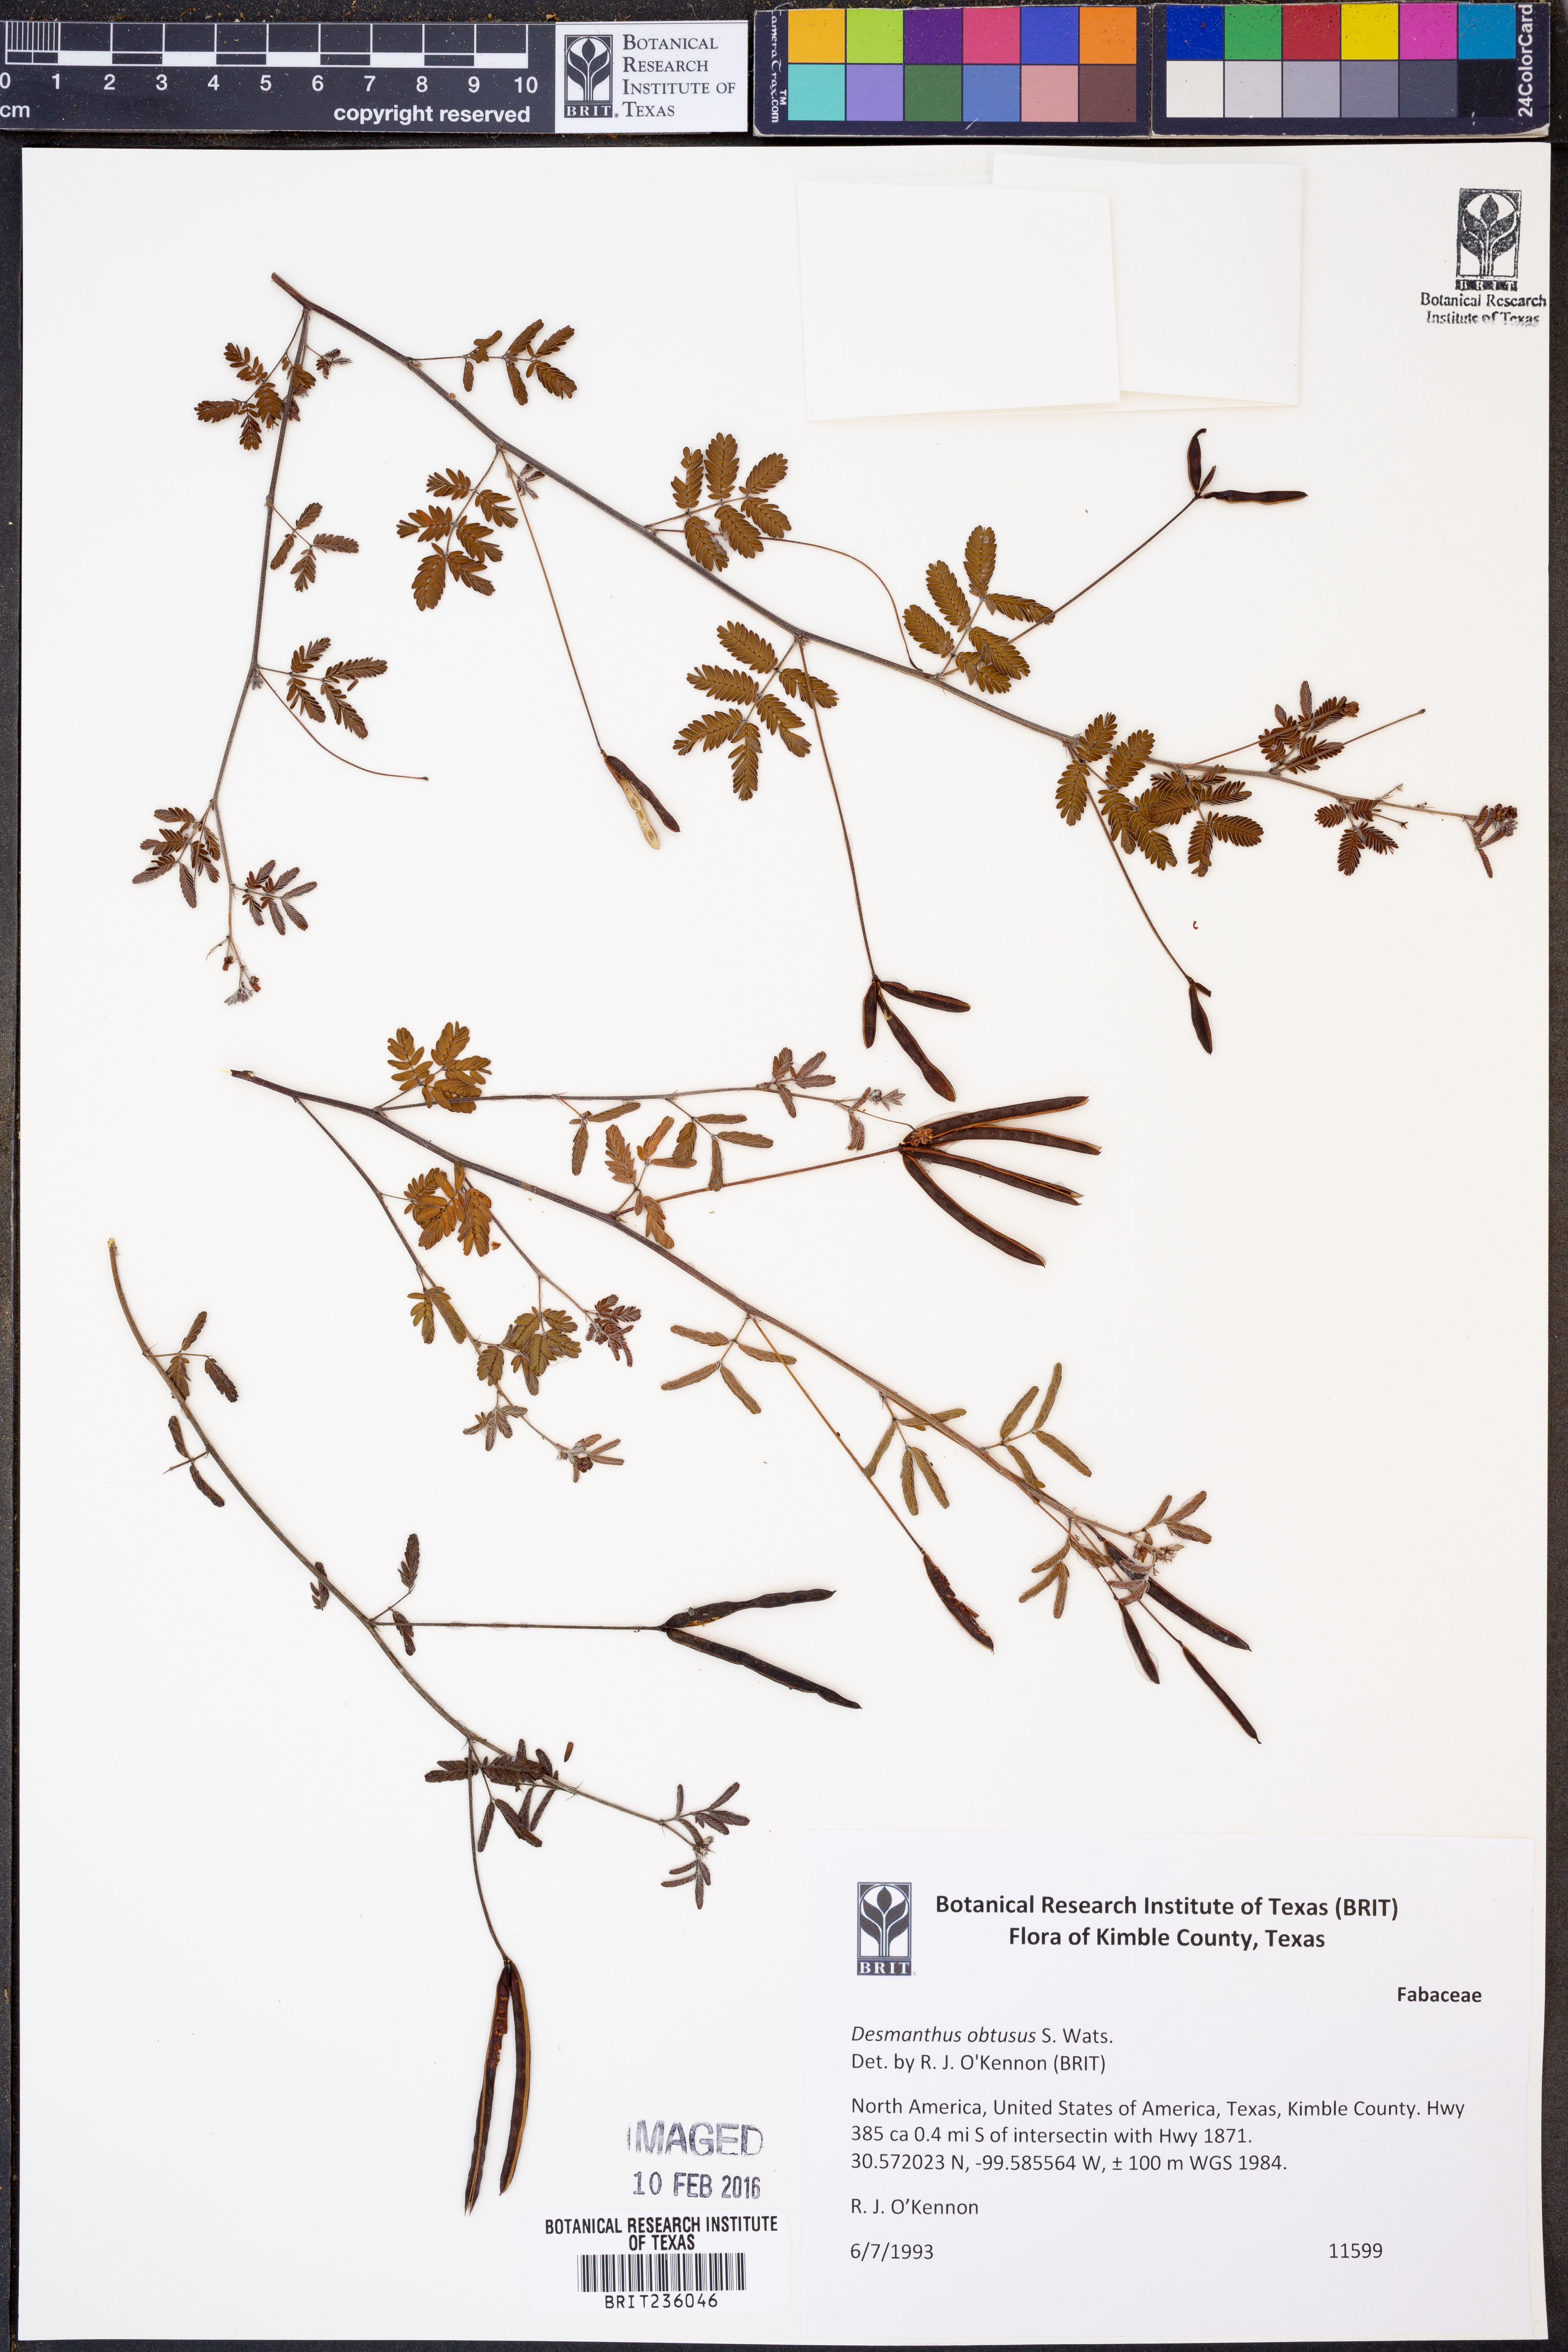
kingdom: Plantae
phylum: Tracheophyta
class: Magnoliopsida
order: Fabales
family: Fabaceae
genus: Desmanthus
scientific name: Desmanthus obtusus
